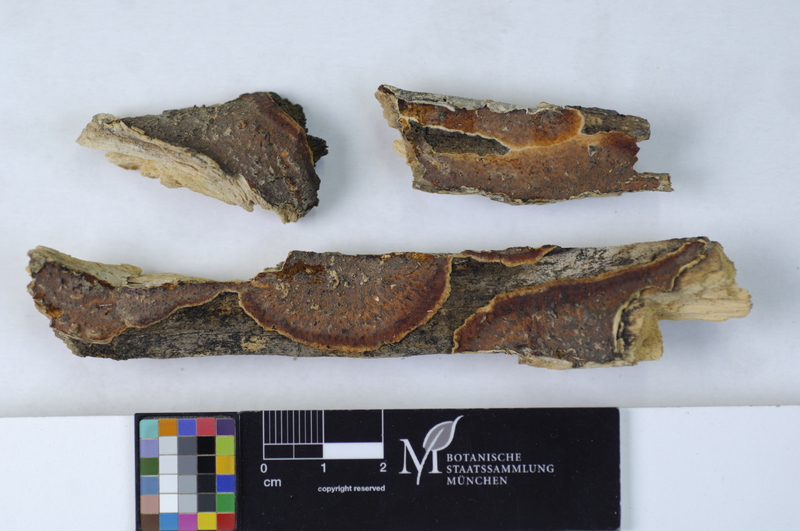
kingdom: Plantae
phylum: Tracheophyta
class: Magnoliopsida
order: Rosales
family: Rosaceae
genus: Prunus
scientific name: Prunus mahaleb
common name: Mahaleb cherry
